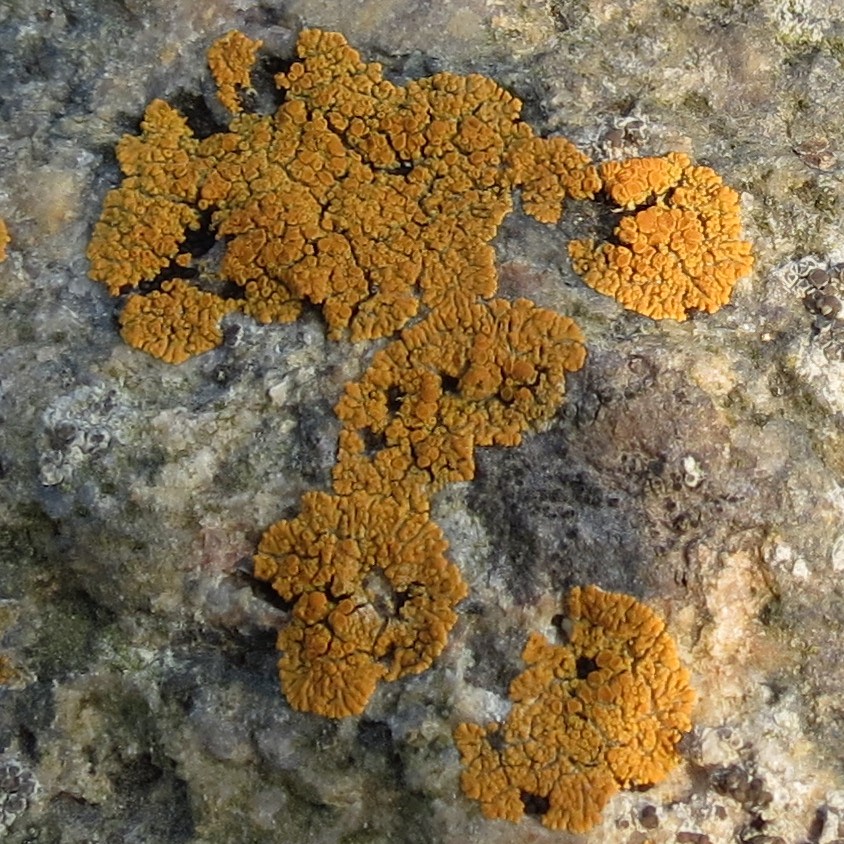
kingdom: Fungi
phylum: Ascomycota
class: Lecanoromycetes
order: Teloschistales
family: Teloschistaceae
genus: Athallia
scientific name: Athallia scopularis
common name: klippe-orangelav
